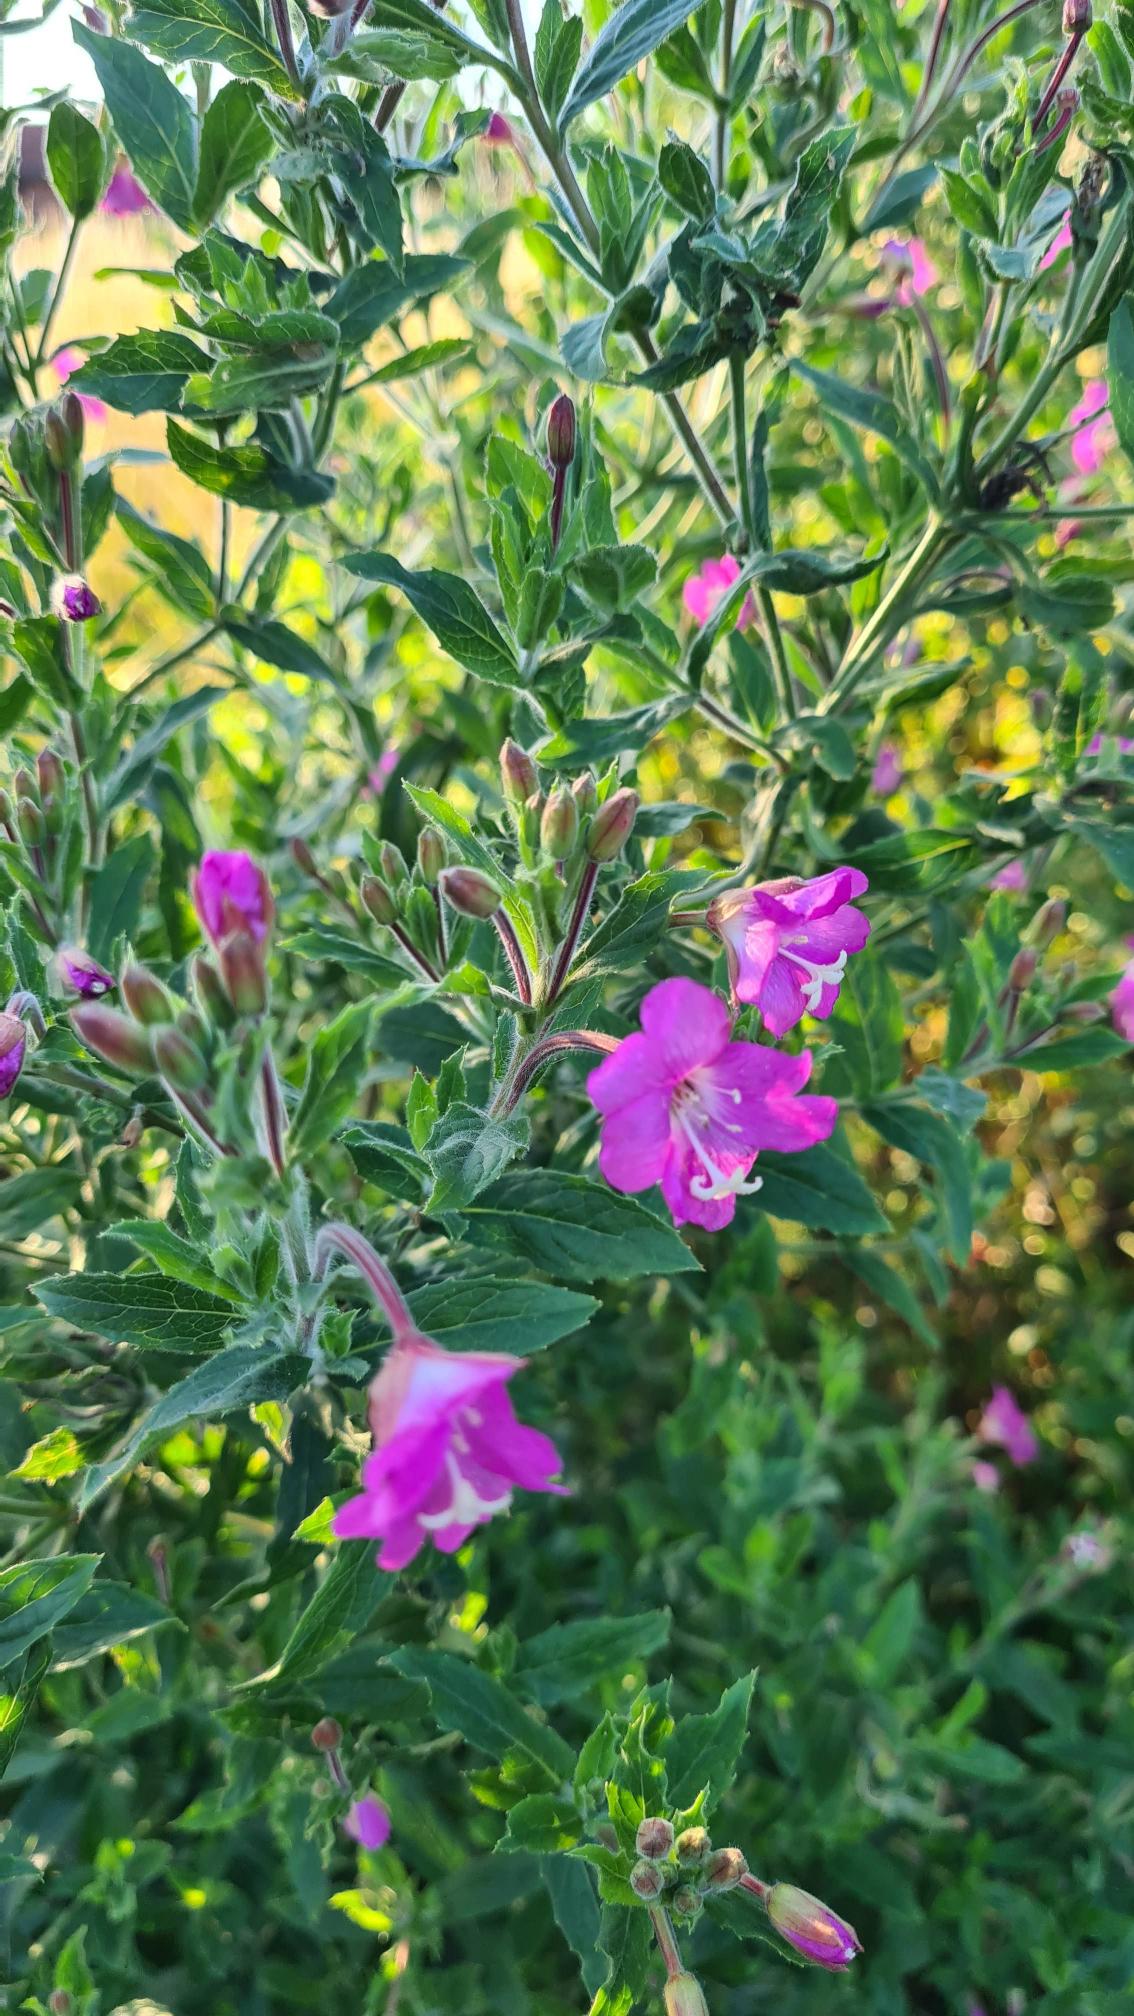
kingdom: Plantae
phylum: Tracheophyta
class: Magnoliopsida
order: Myrtales
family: Onagraceae
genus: Epilobium
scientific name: Epilobium hirsutum
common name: Lådden dueurt
